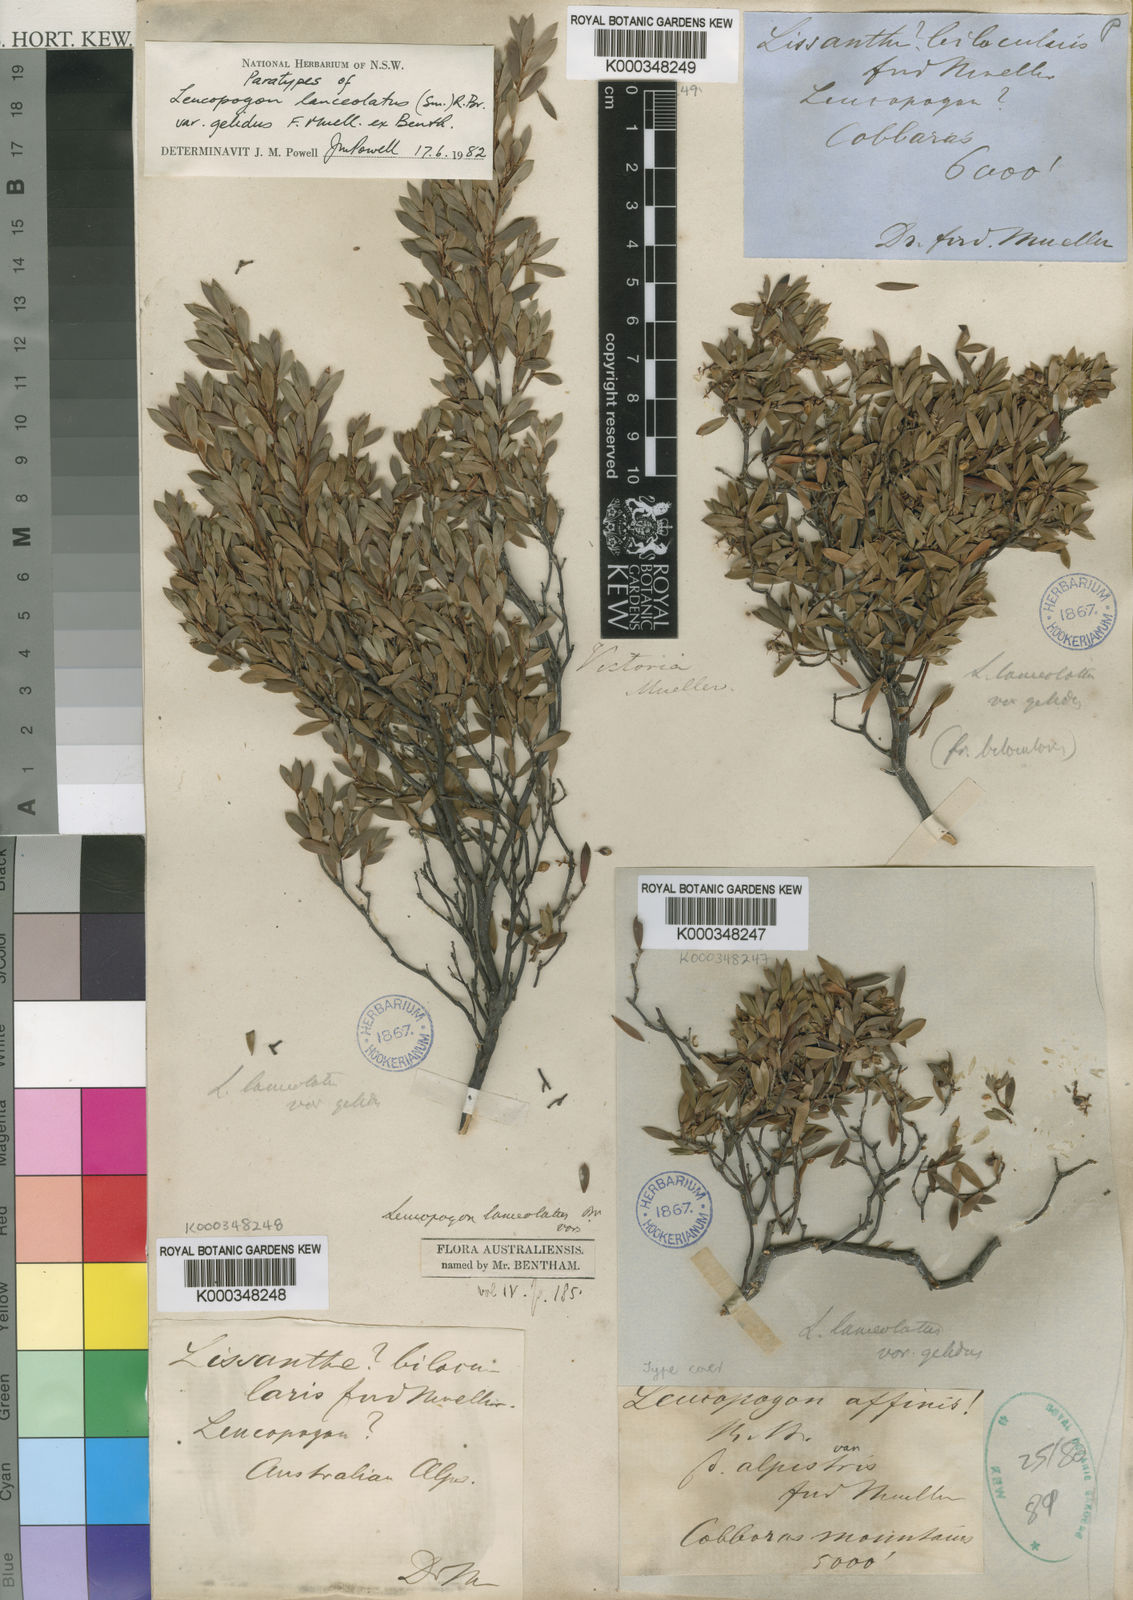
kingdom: Plantae
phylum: Tracheophyta
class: Magnoliopsida
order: Ericales
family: Ericaceae
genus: Leucopogon
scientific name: Leucopogon gelidus
